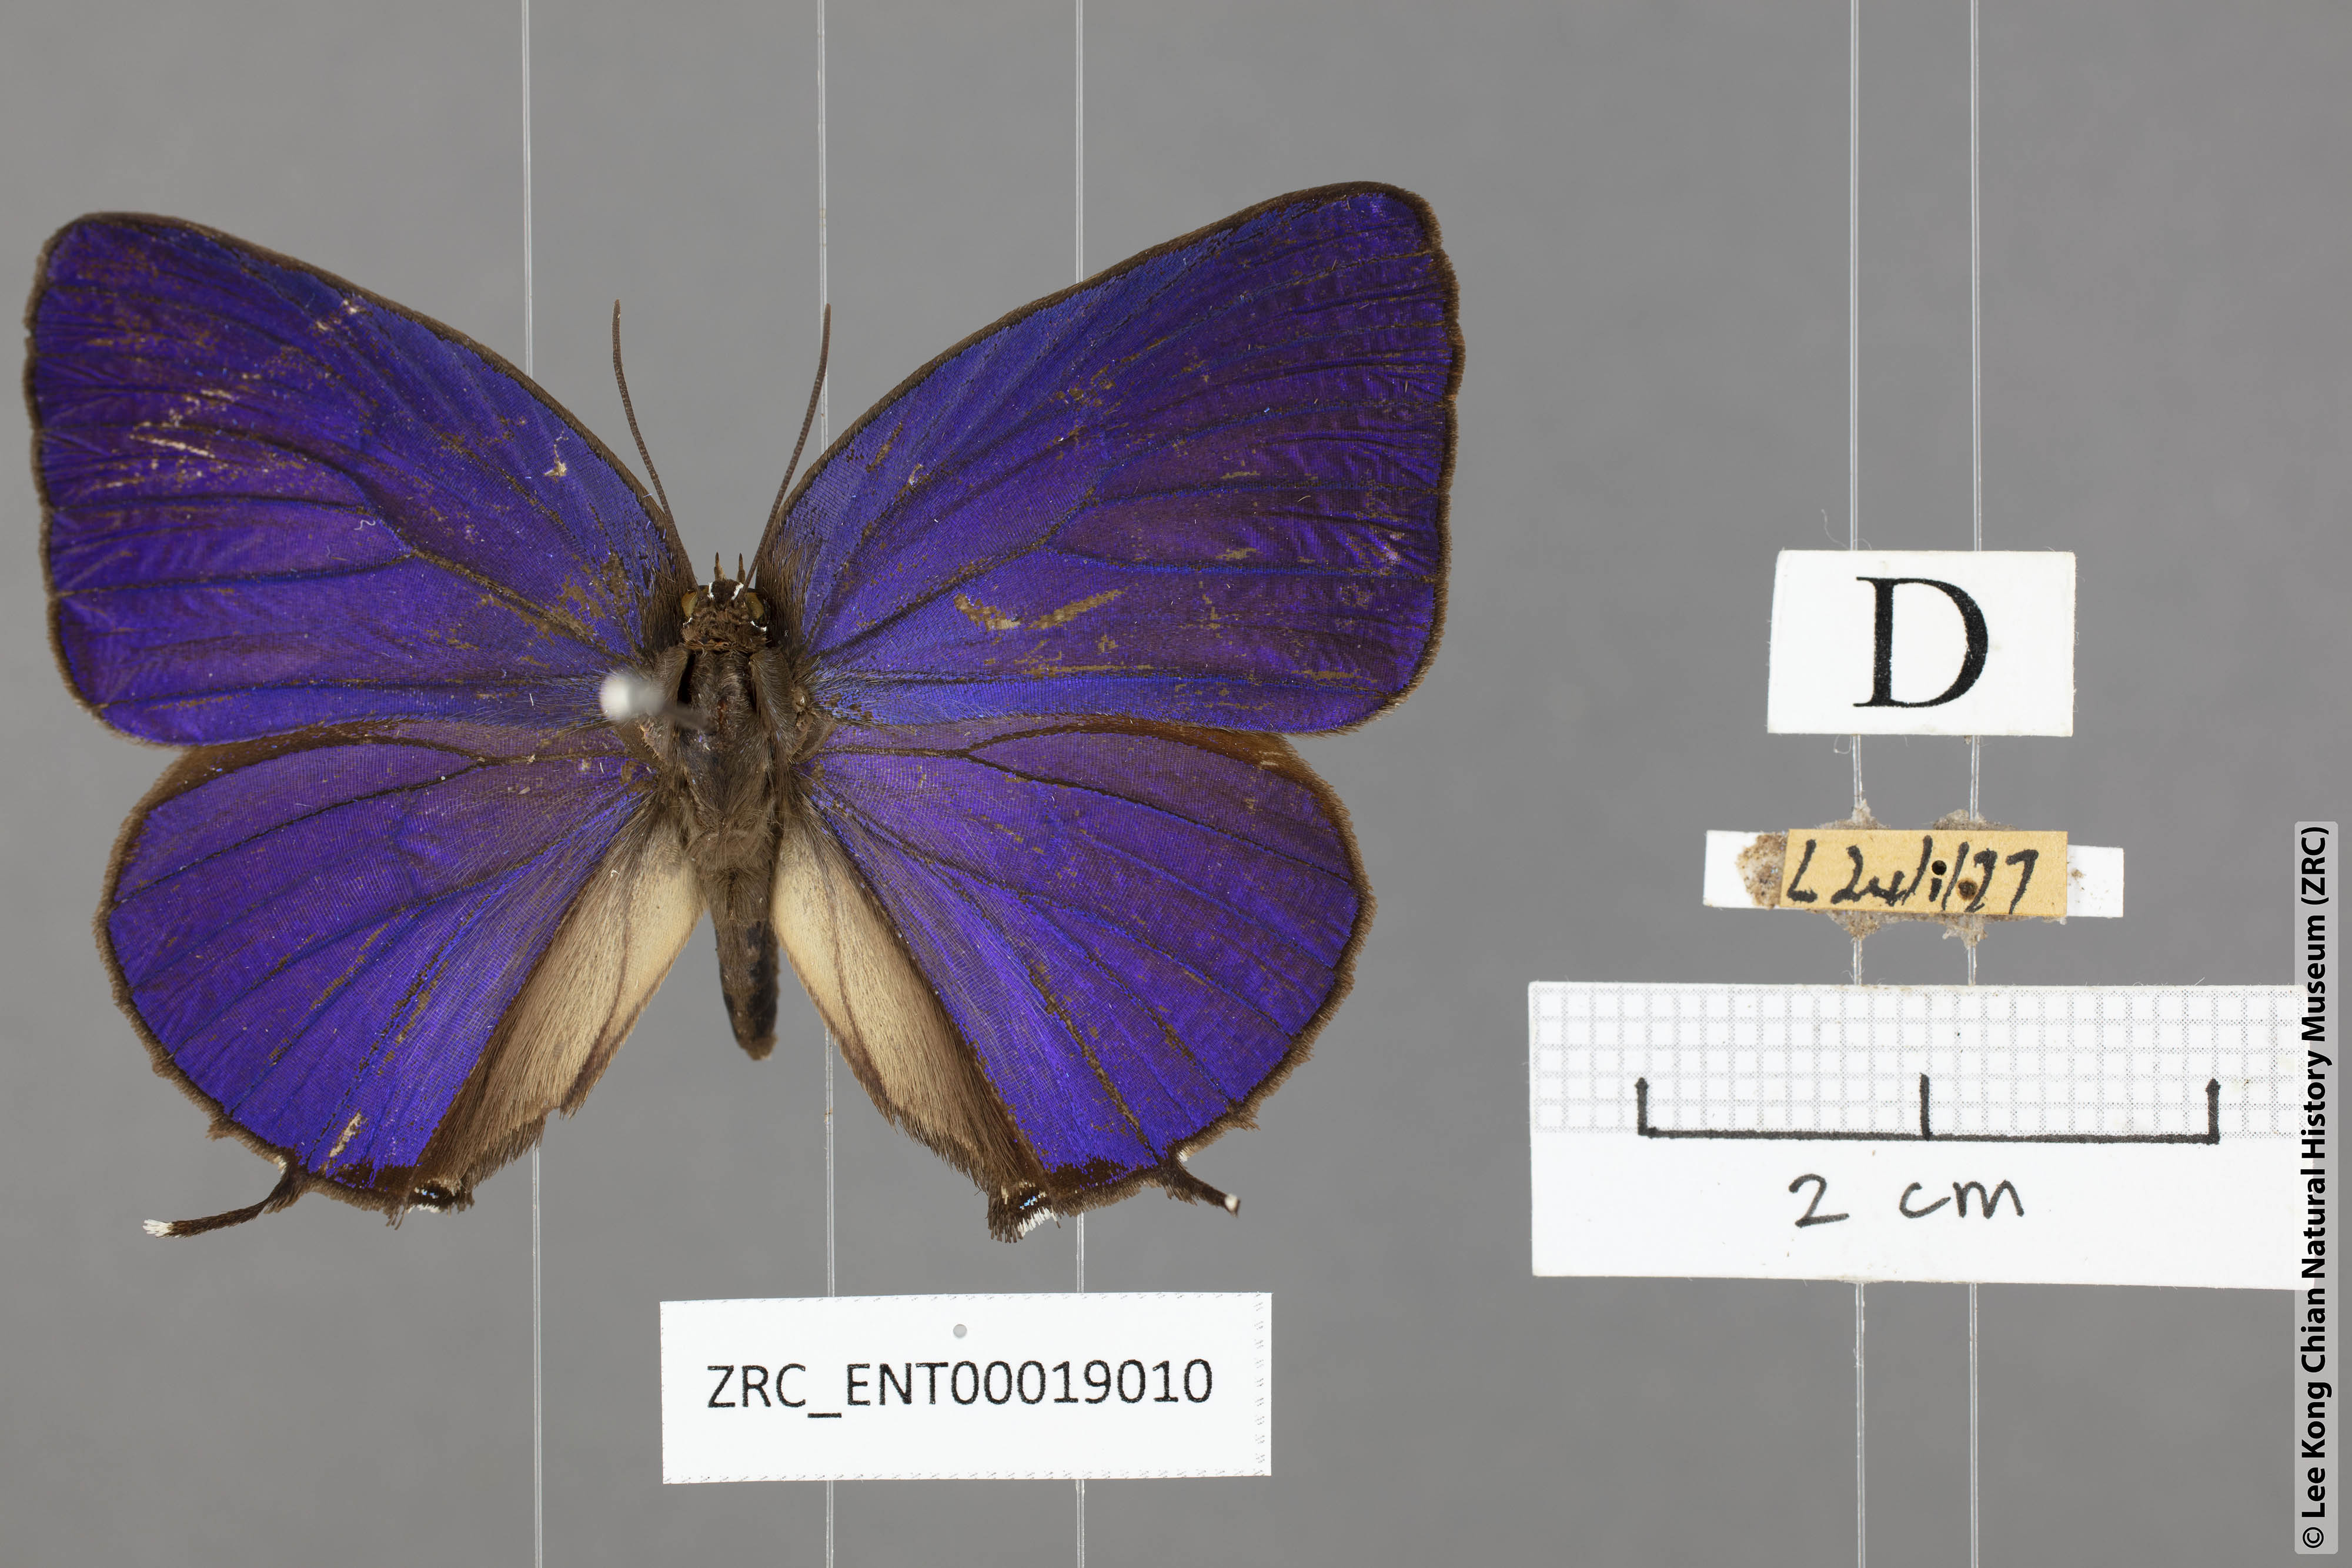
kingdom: Animalia
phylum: Arthropoda
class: Insecta
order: Lepidoptera
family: Lycaenidae
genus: Arhopala
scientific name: Arhopala aedias
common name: Large metallic oakblue
